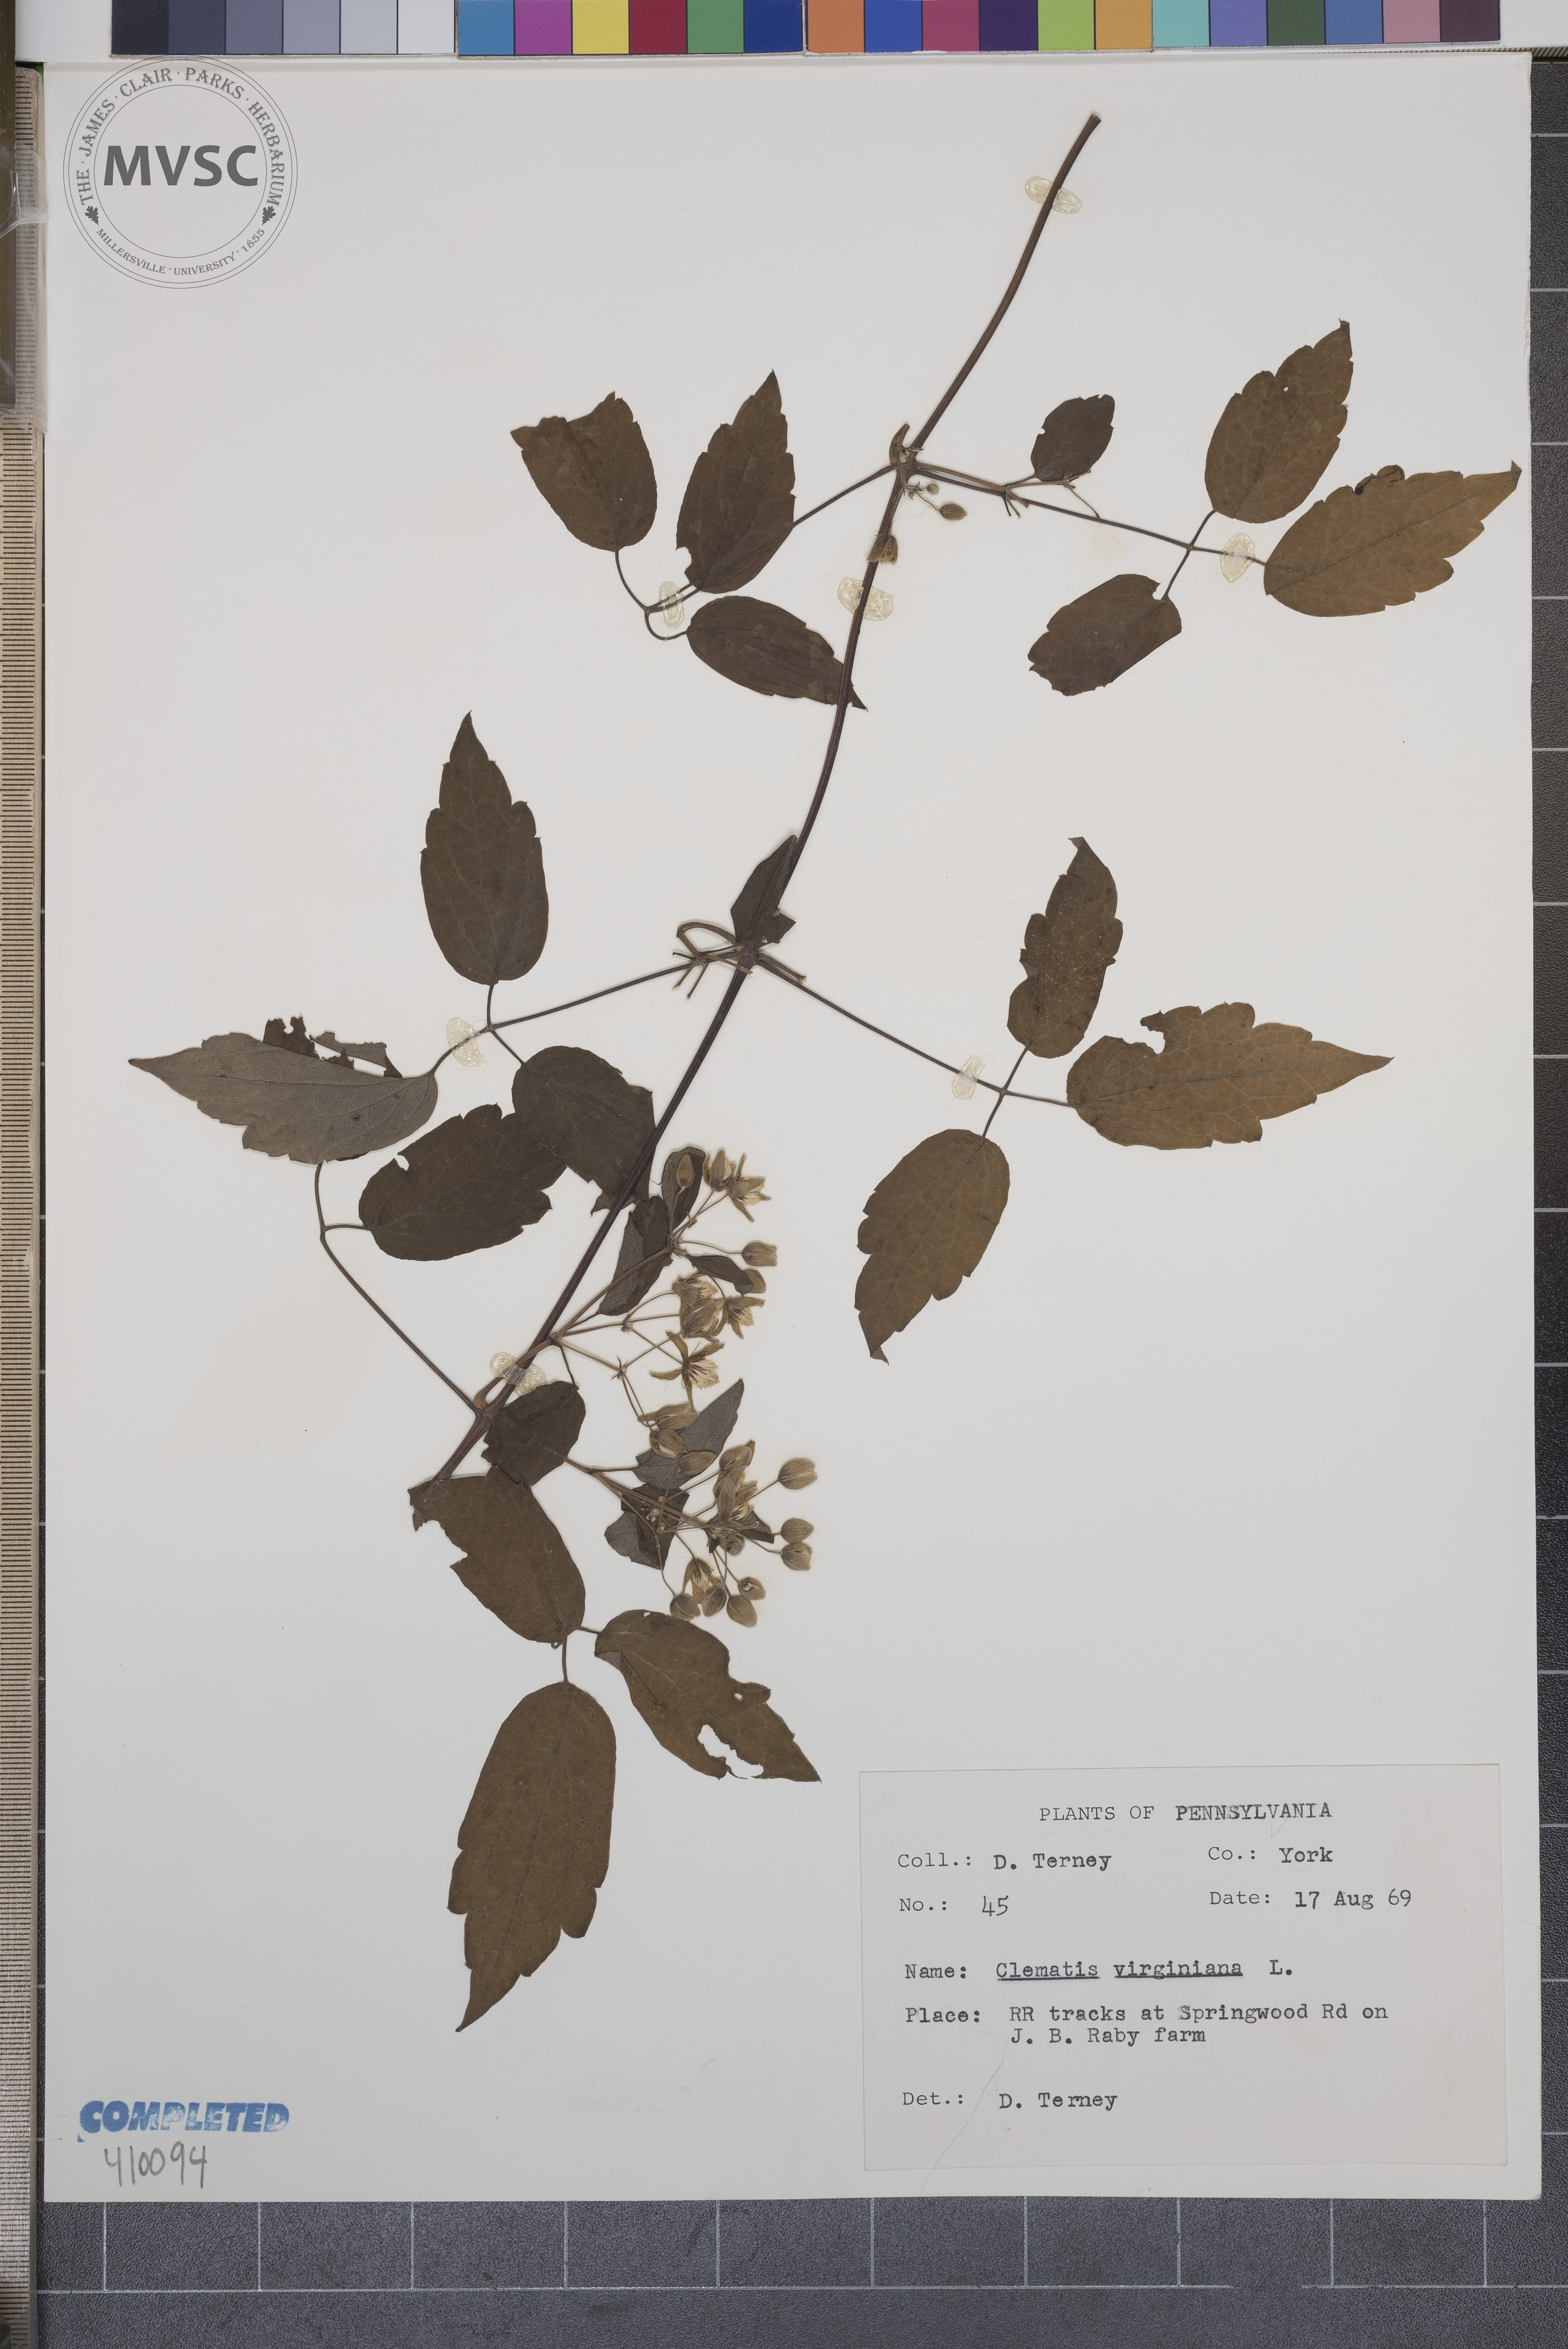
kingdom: Plantae
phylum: Tracheophyta
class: Magnoliopsida
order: Ranunculales
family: Ranunculaceae
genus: Clematis
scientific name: Clematis virginiana
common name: Virgin's-bower
